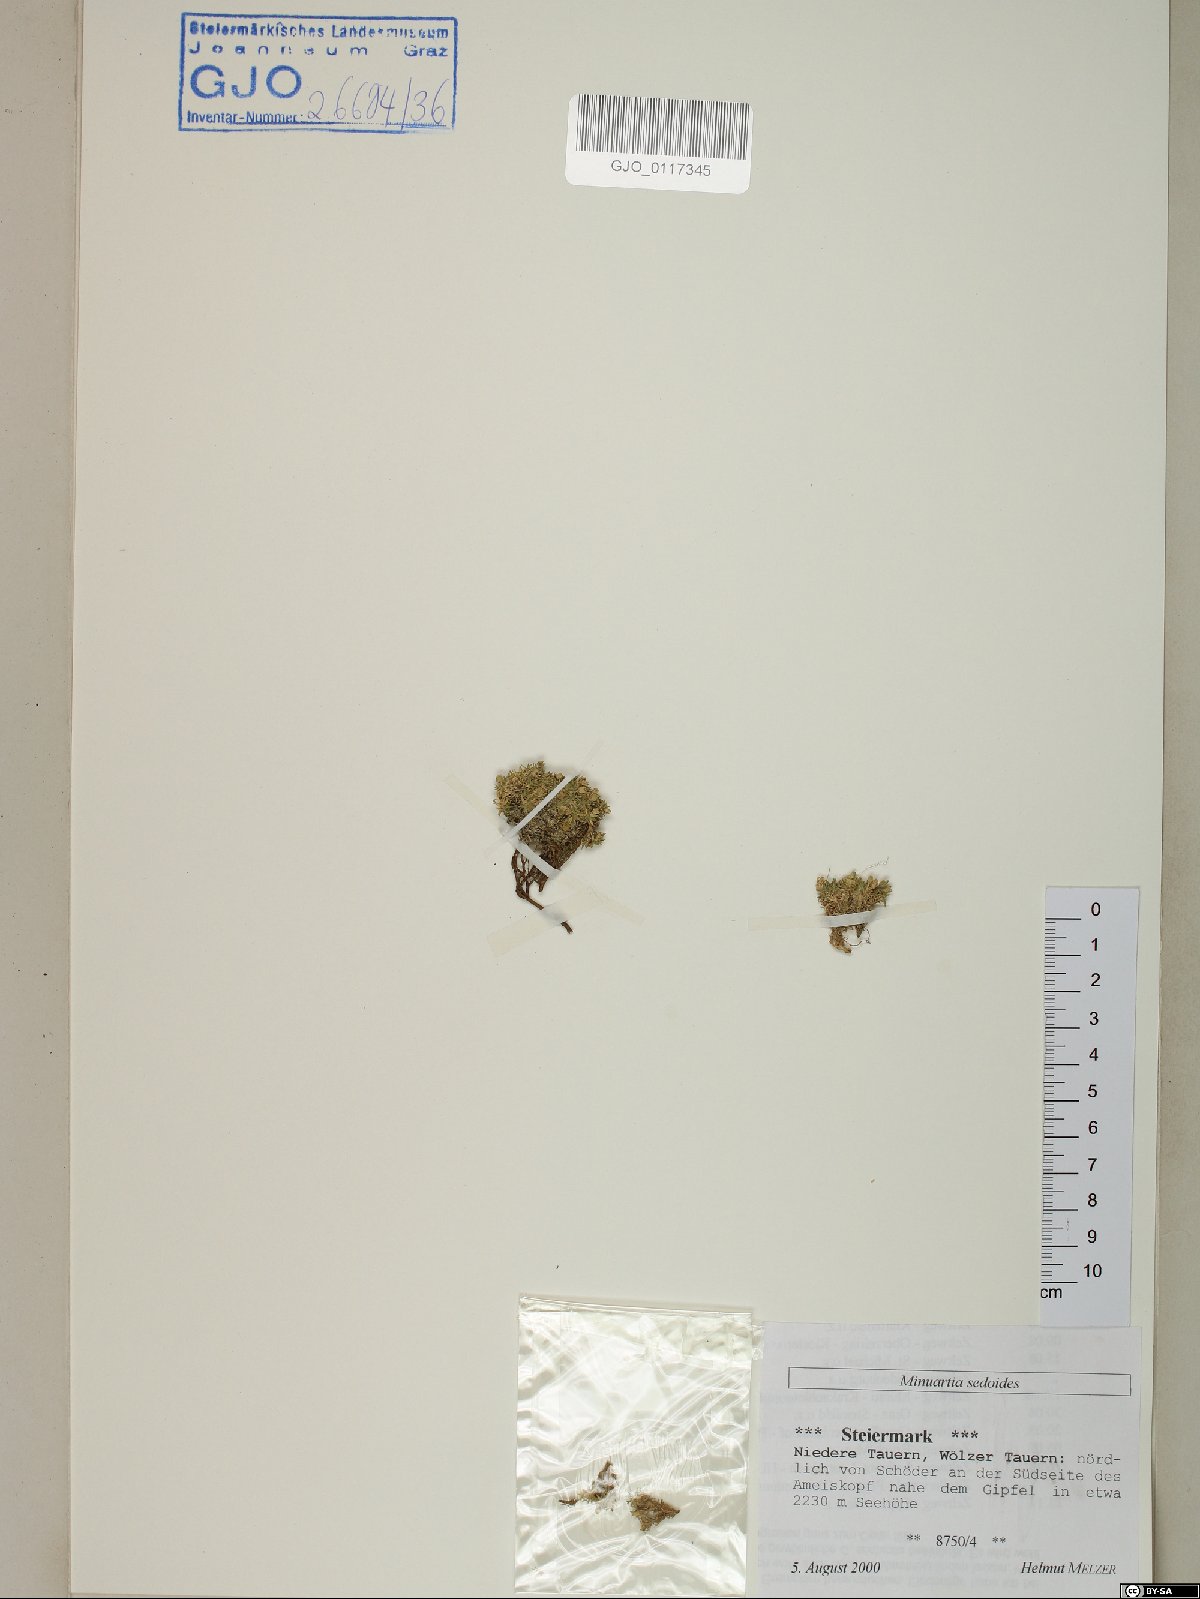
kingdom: Plantae
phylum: Tracheophyta
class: Magnoliopsida
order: Caryophyllales
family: Caryophyllaceae
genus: Cherleria
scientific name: Cherleria sedoides
